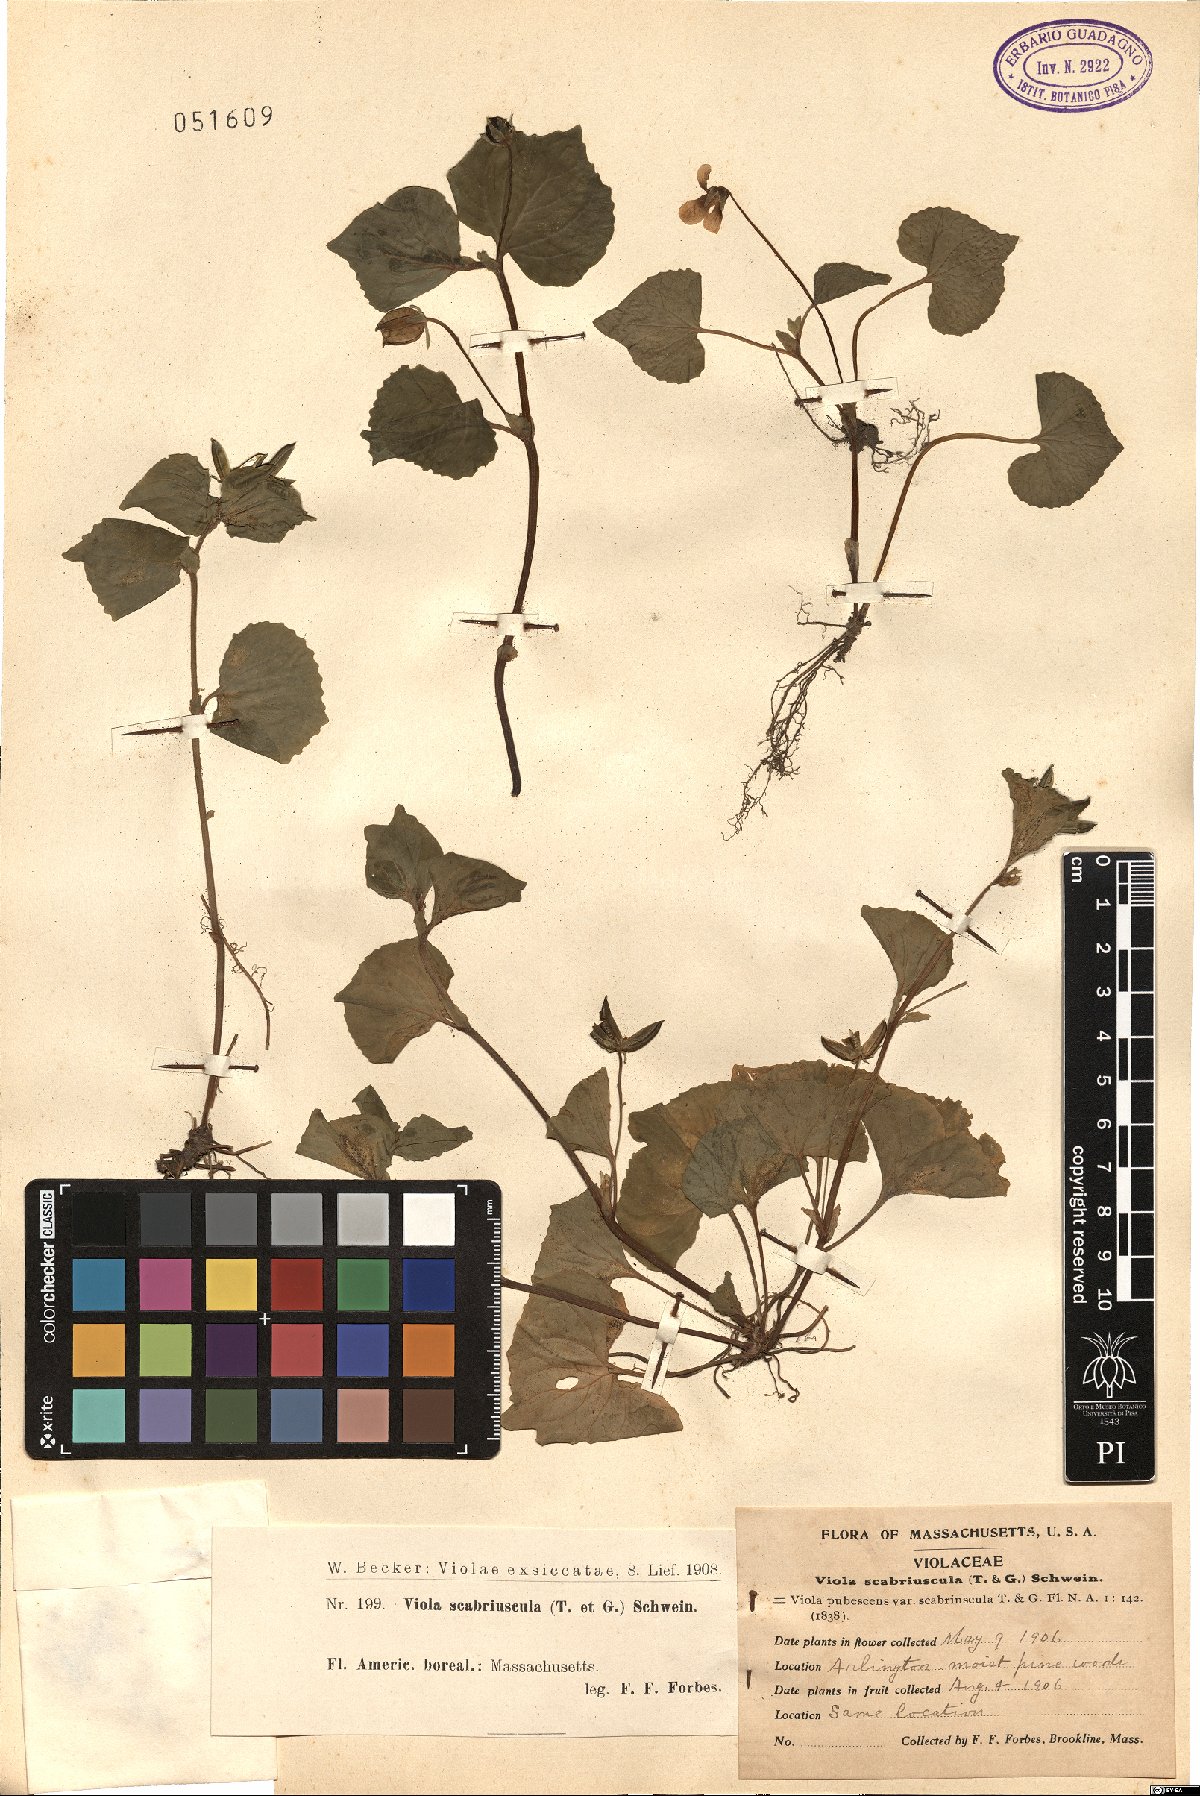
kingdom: Plantae
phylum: Tracheophyta
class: Magnoliopsida
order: Malpighiales
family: Violaceae
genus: Viola
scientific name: Viola eriocarpa
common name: Smooth yellow violet
